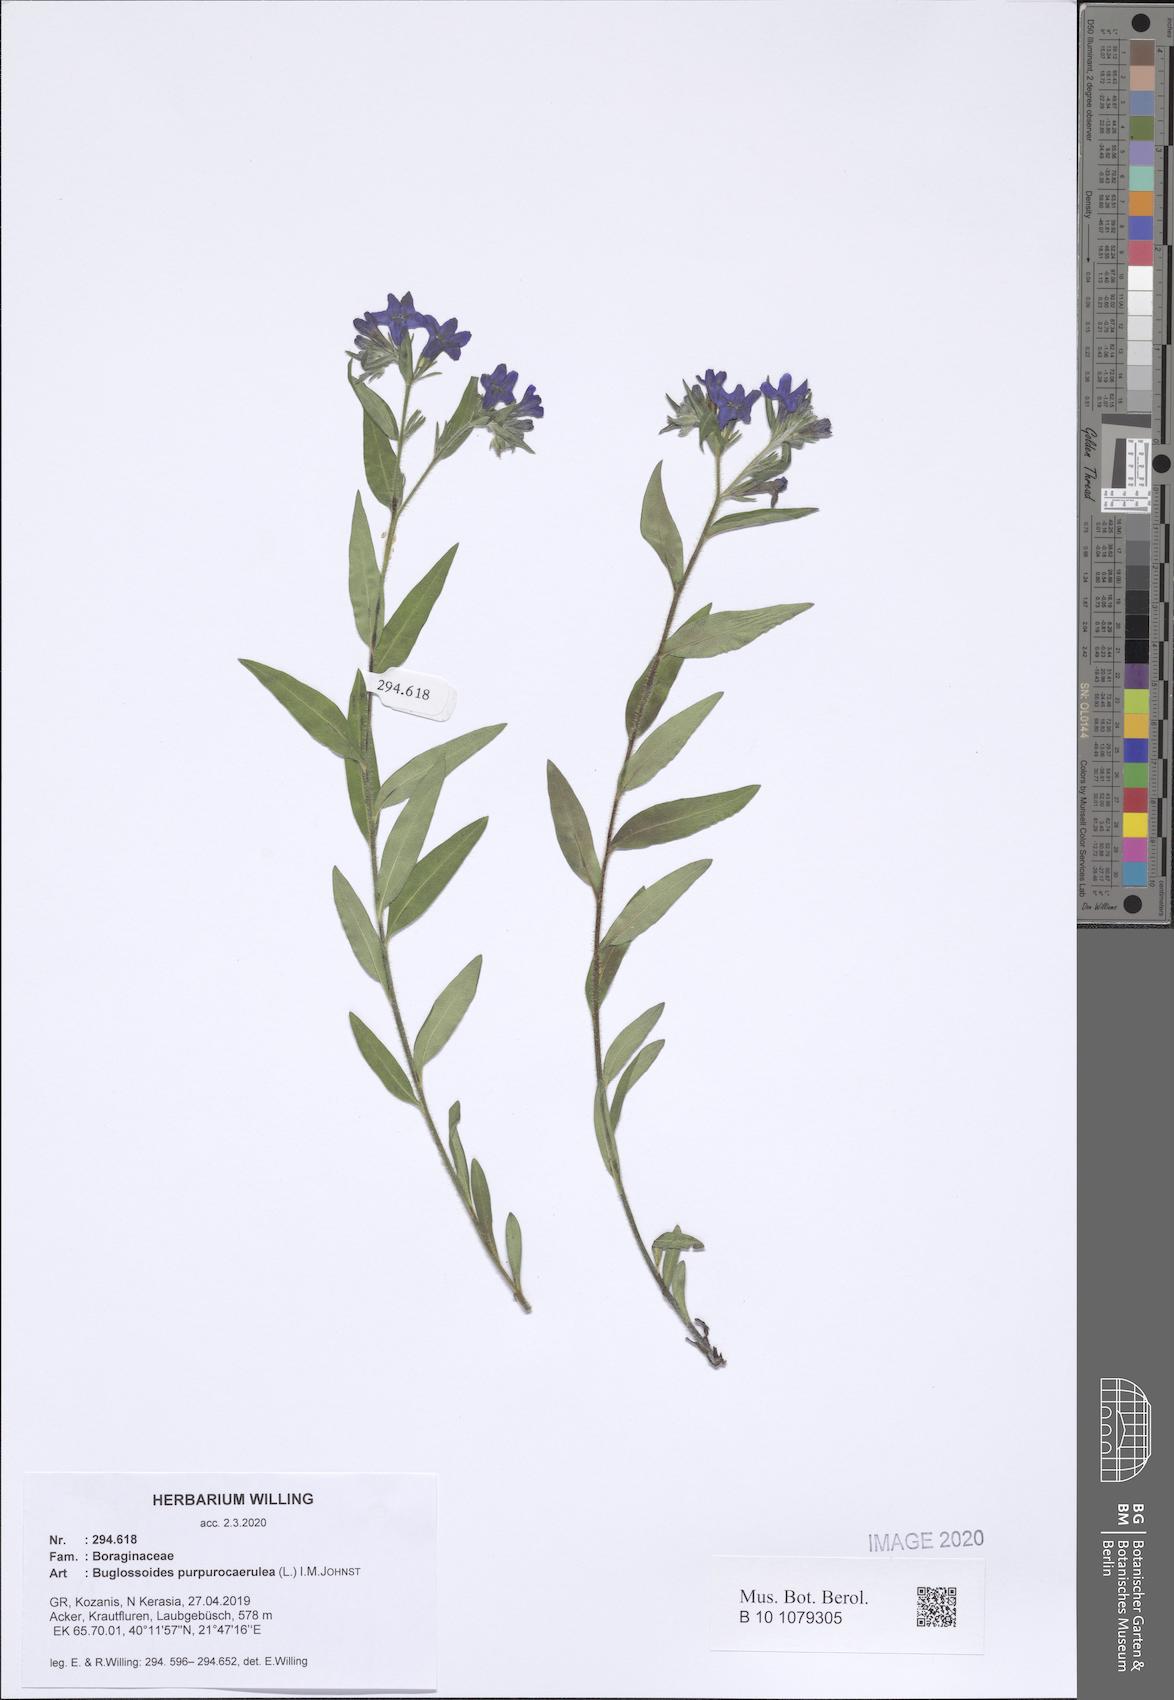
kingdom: Plantae
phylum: Tracheophyta
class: Magnoliopsida
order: Boraginales
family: Boraginaceae
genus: Aegonychon
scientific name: Aegonychon purpurocaeruleum
